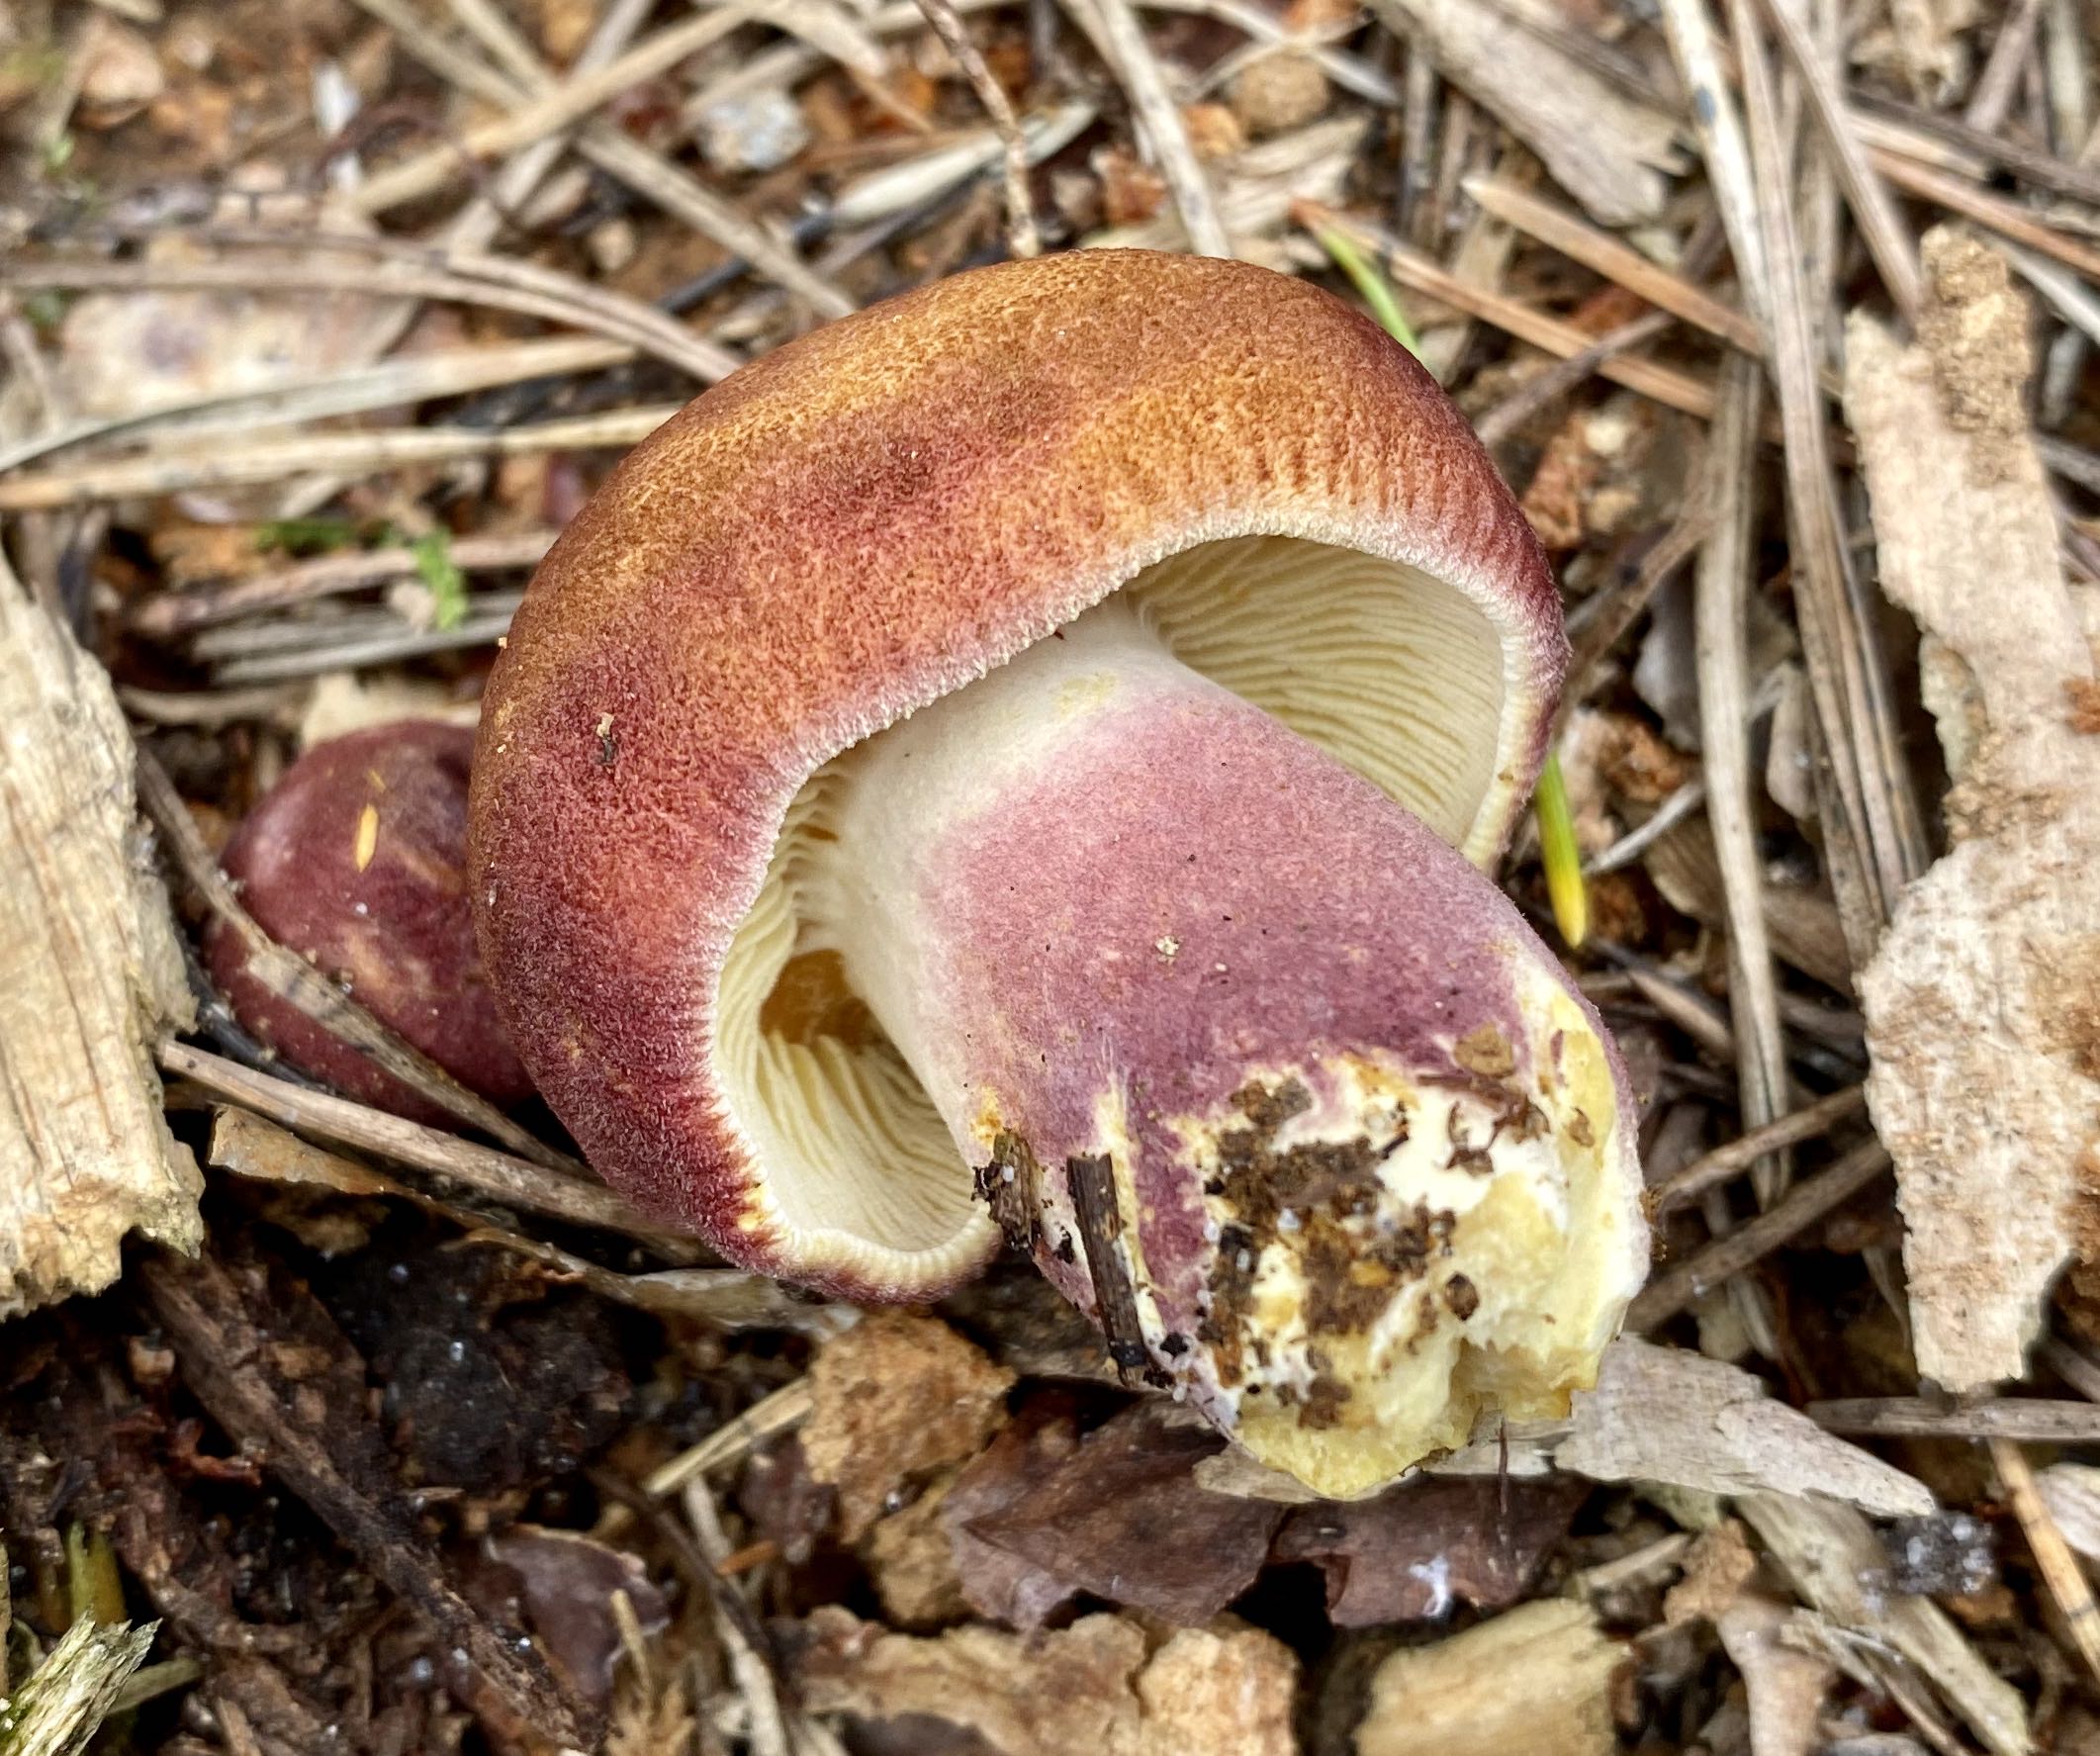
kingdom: Fungi
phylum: Basidiomycota
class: Agaricomycetes
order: Agaricales
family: Tricholomataceae
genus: Tricholomopsis
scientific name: Tricholomopsis rutilans
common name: purpur-væbnerhat
